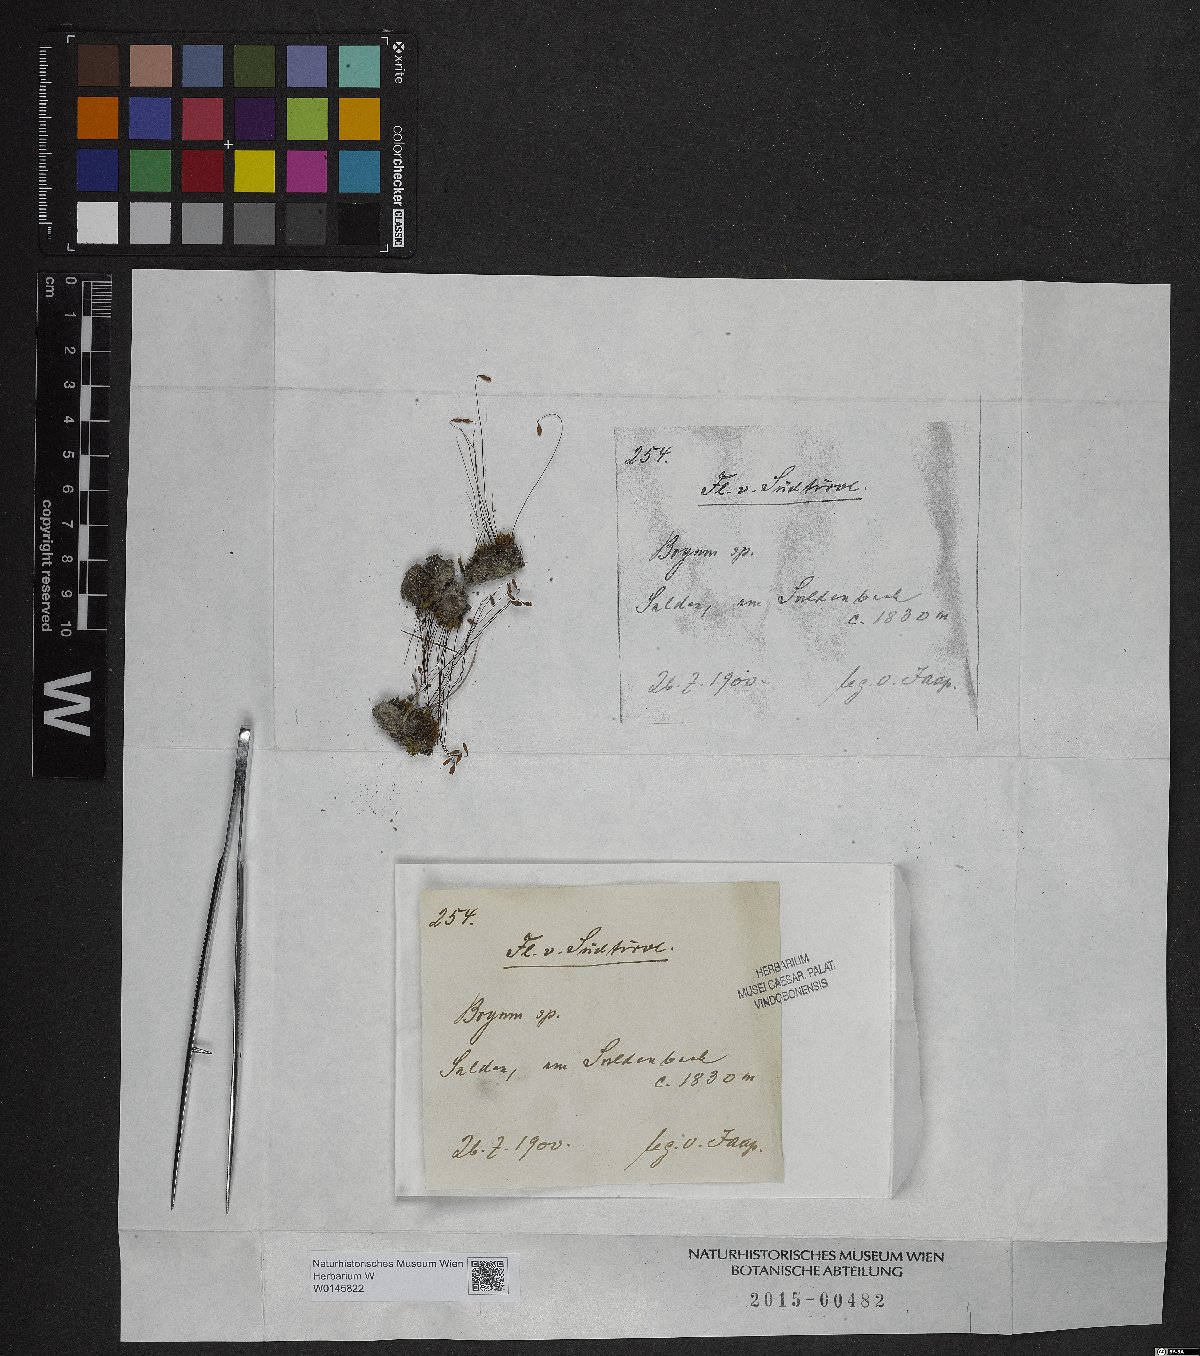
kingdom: Plantae
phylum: Bryophyta
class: Bryopsida
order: Bryales
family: Bryaceae
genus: Bryum
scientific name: Bryum
